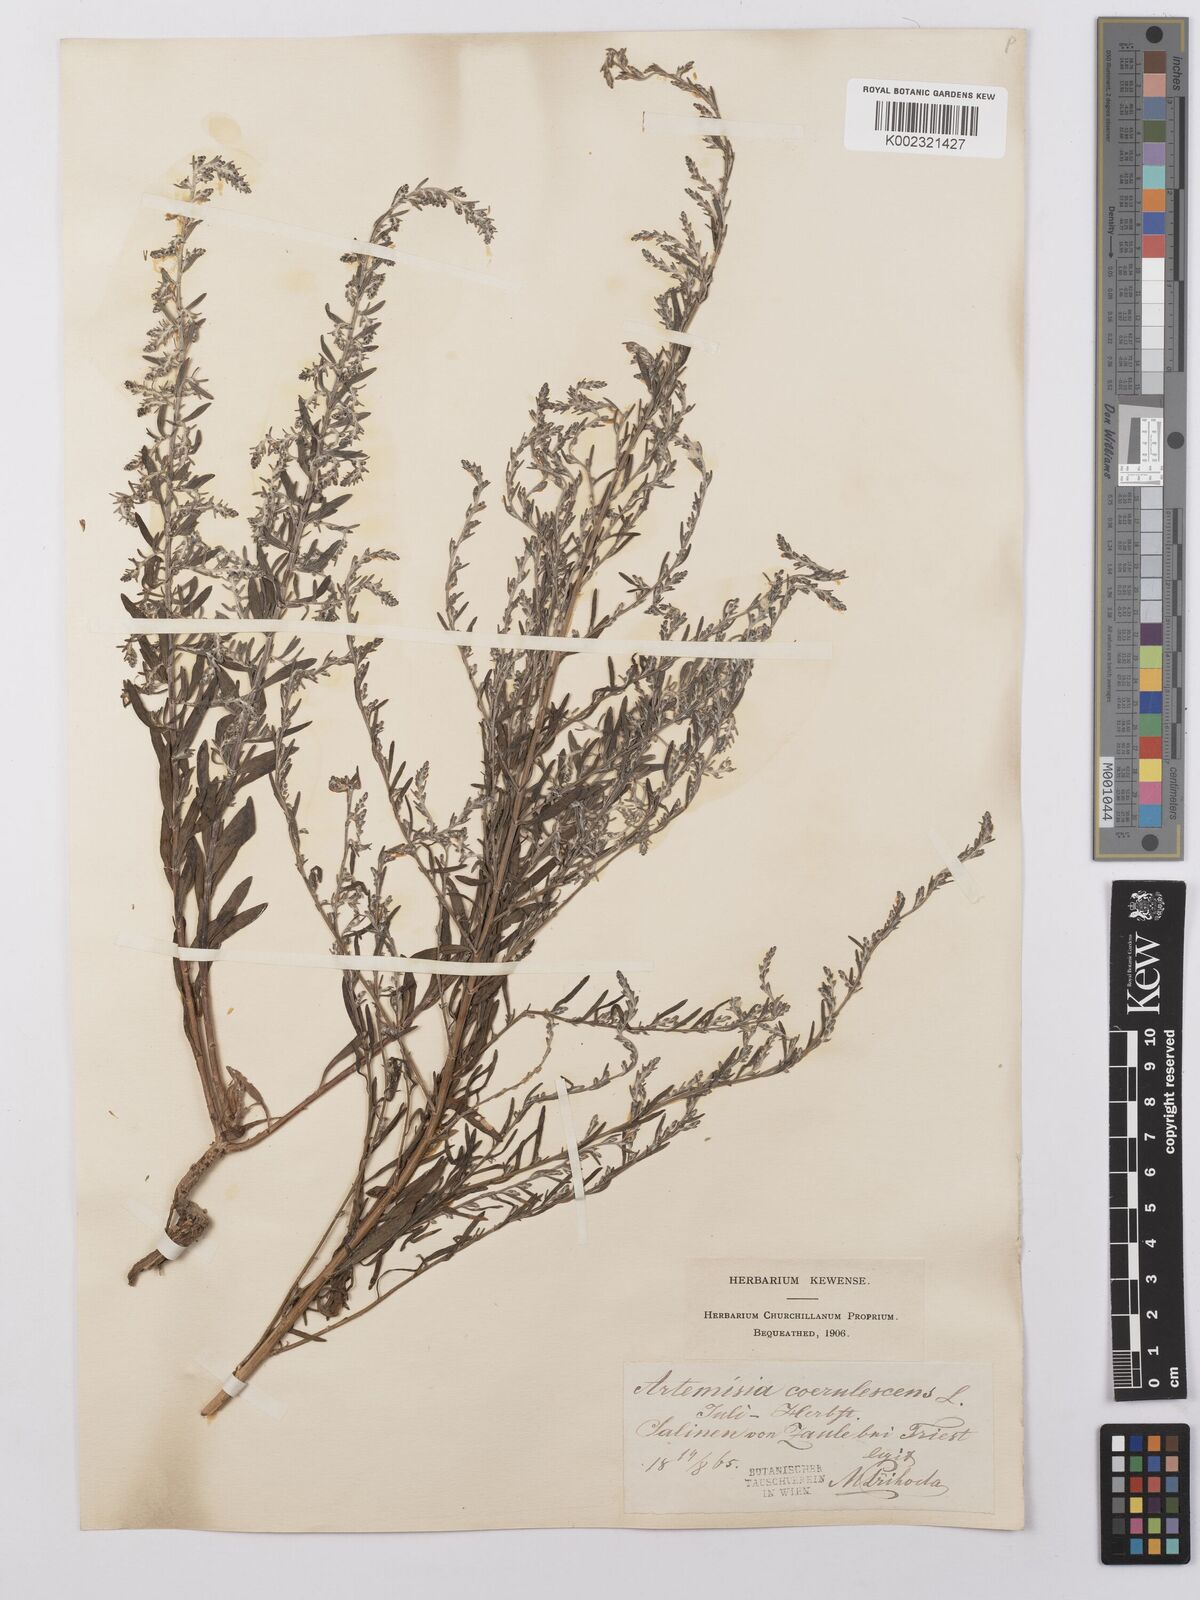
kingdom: Plantae
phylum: Tracheophyta
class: Magnoliopsida
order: Asterales
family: Asteraceae
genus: Artemisia
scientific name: Artemisia caerulescens
